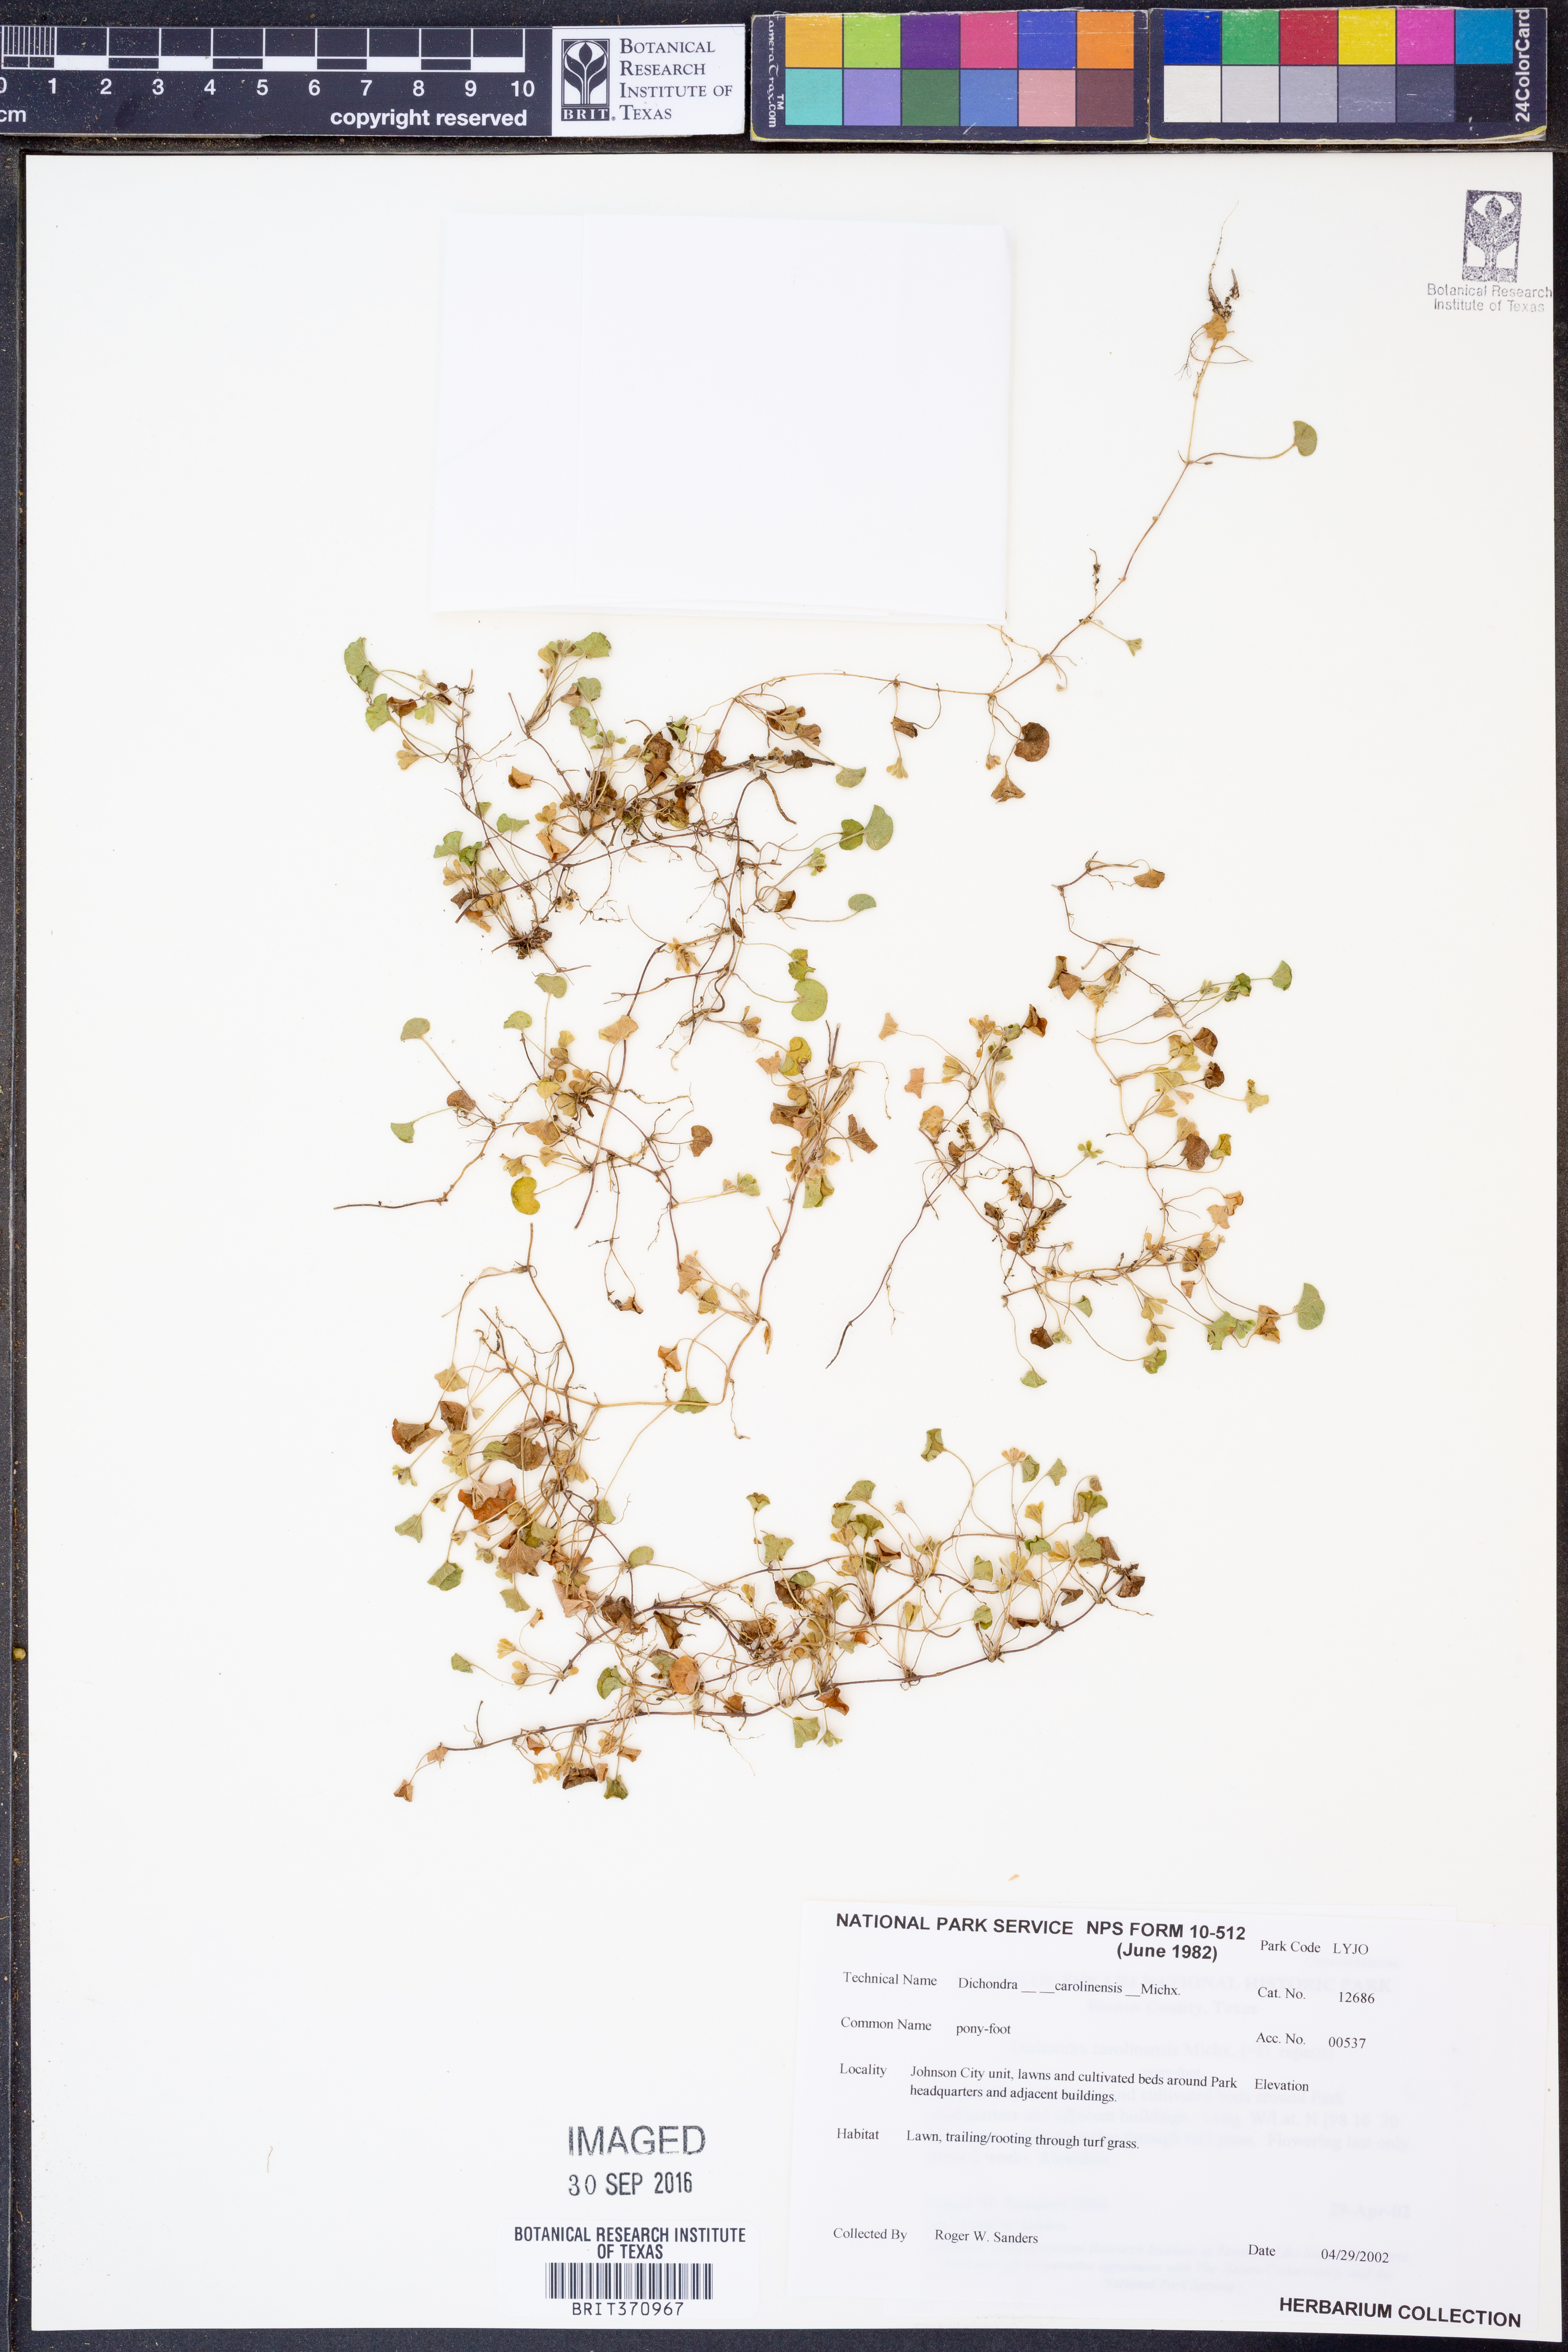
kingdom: Plantae
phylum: Tracheophyta
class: Magnoliopsida
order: Solanales
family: Convolvulaceae
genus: Dichondra
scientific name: Dichondra carolinensis
